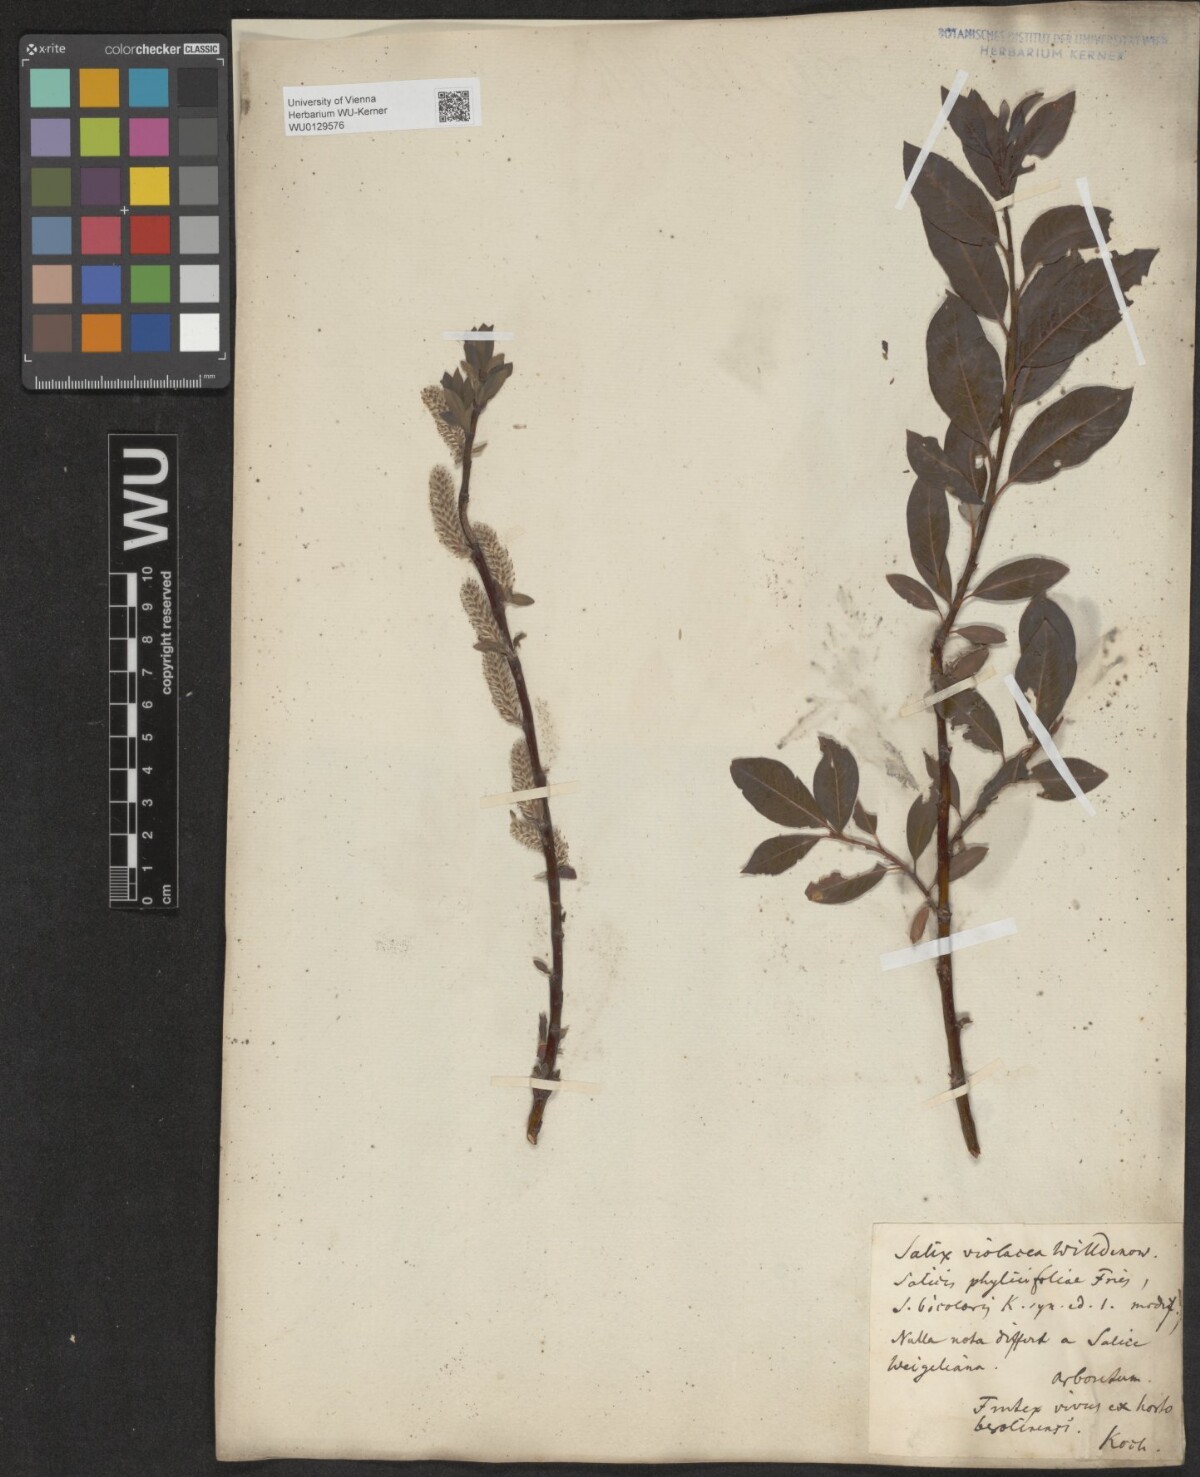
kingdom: Plantae
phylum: Tracheophyta
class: Magnoliopsida
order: Malpighiales
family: Salicaceae
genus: Salix
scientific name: Salix bicolor
